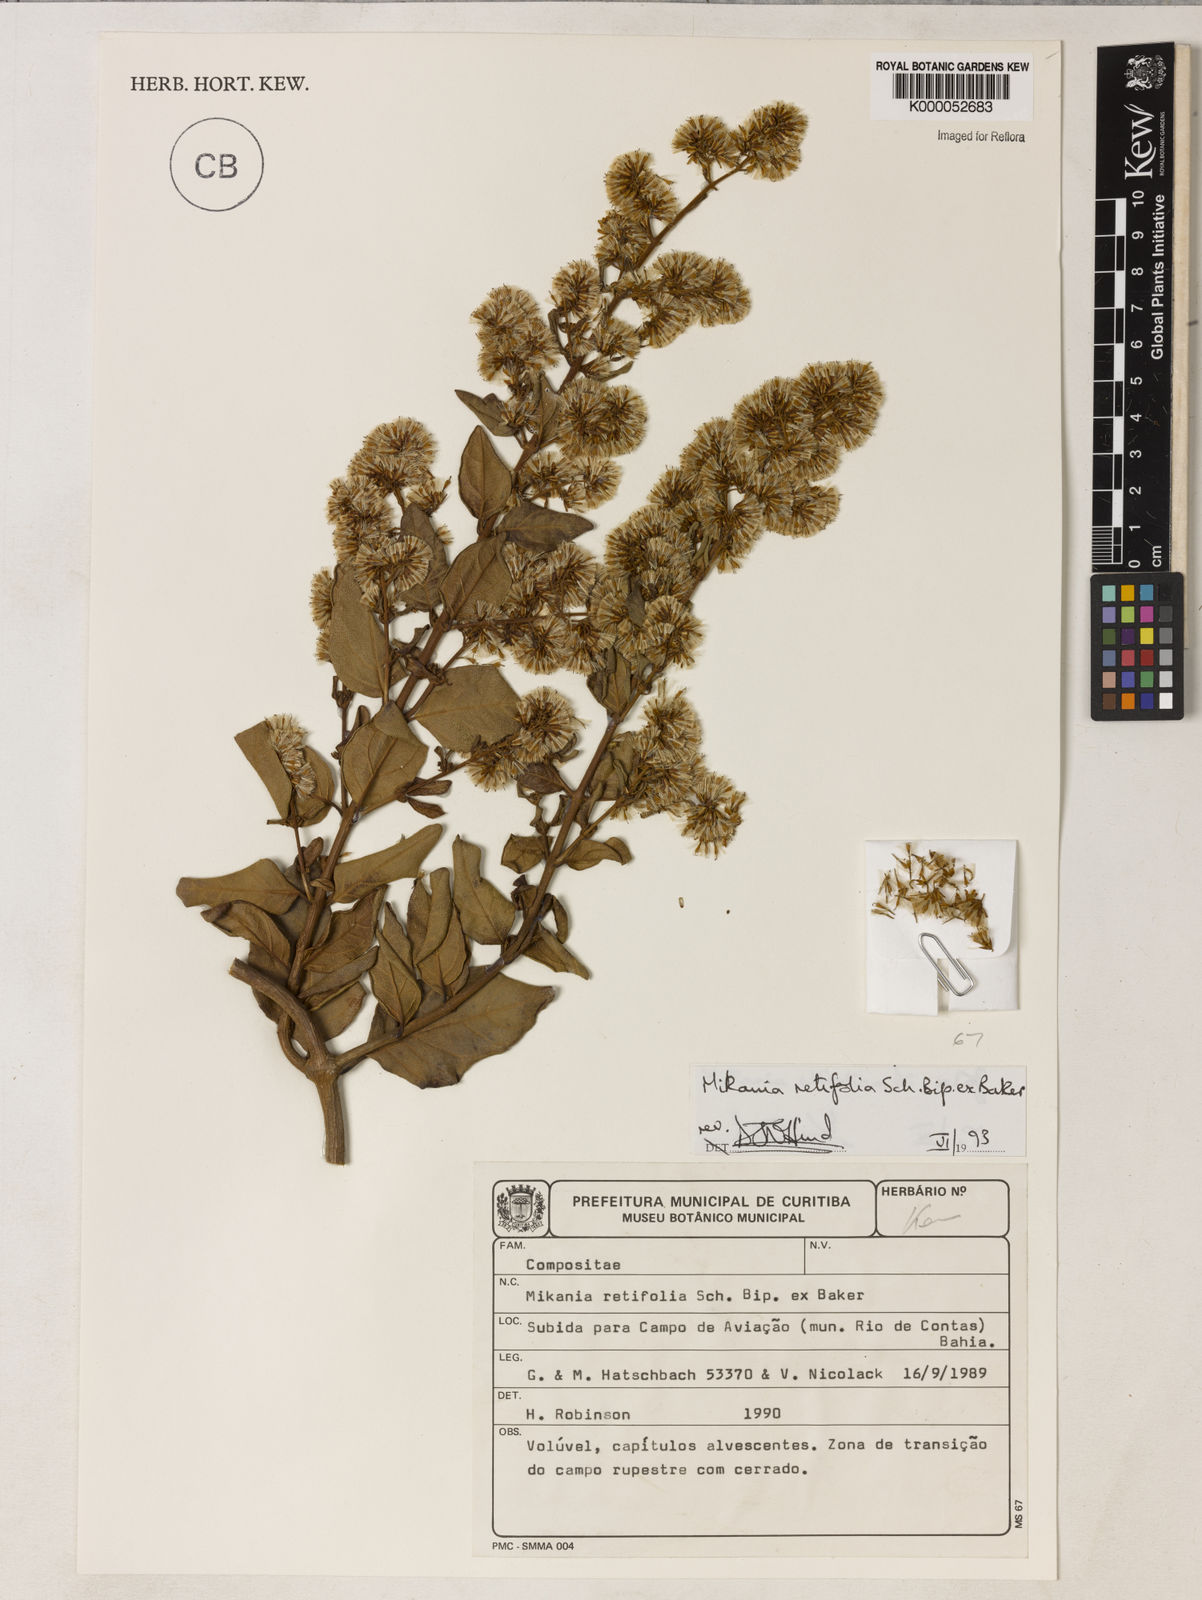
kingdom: Plantae
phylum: Tracheophyta
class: Magnoliopsida
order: Asterales
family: Asteraceae
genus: Mikania
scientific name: Mikania retifolia
